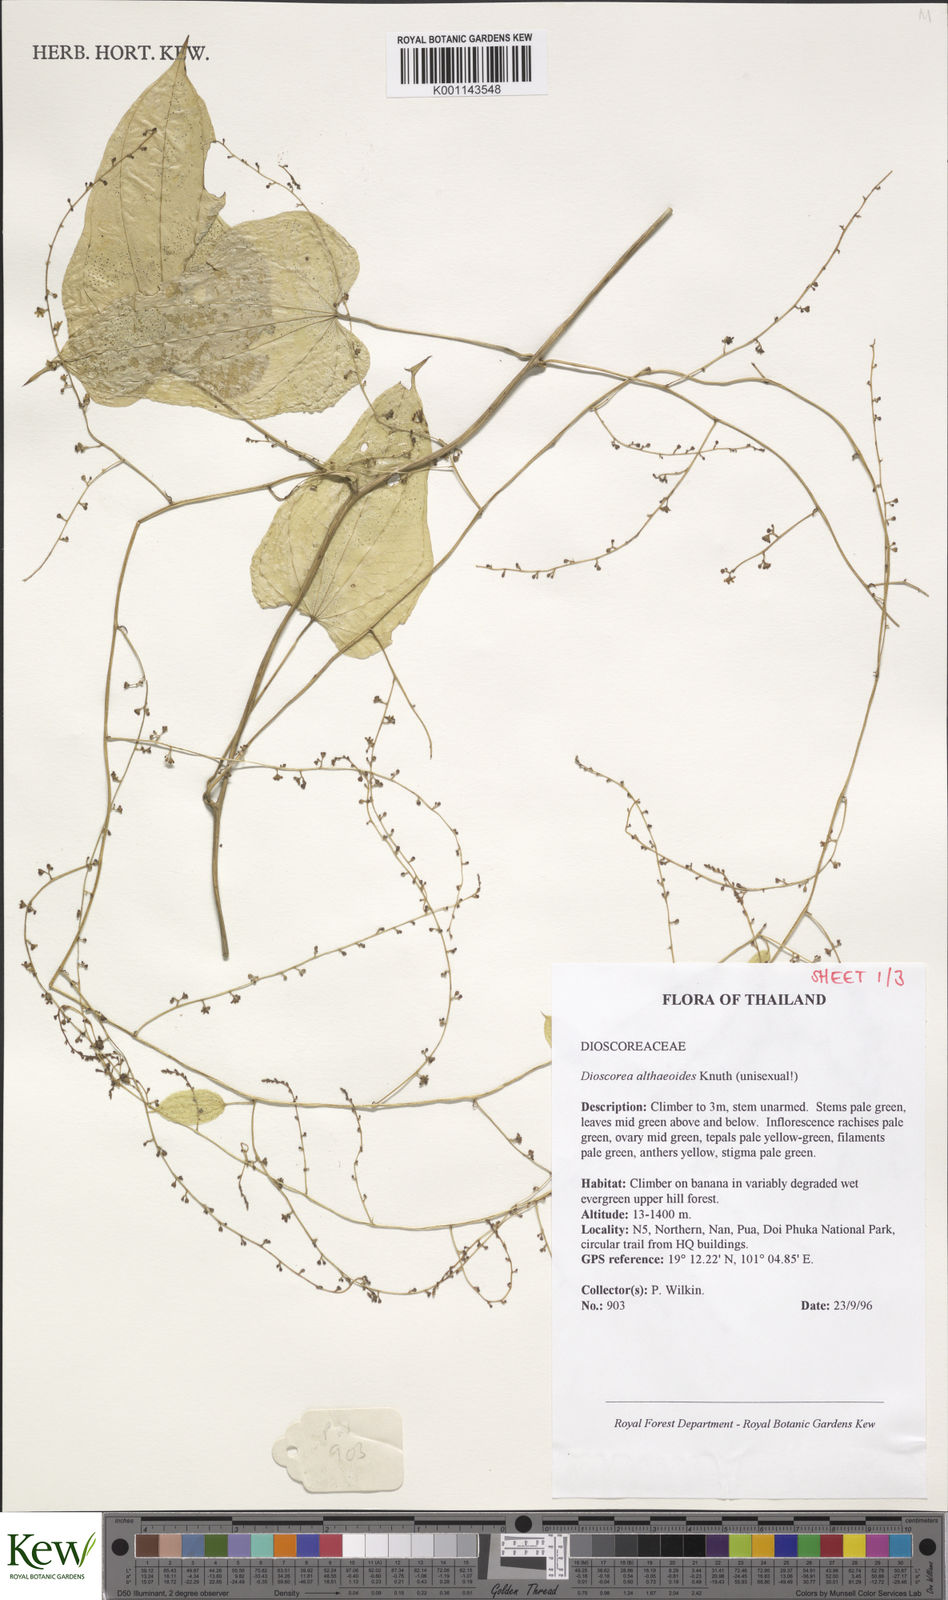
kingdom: Plantae
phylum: Tracheophyta
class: Liliopsida
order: Dioscoreales
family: Dioscoreaceae
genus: Dioscorea
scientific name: Dioscorea rockii
